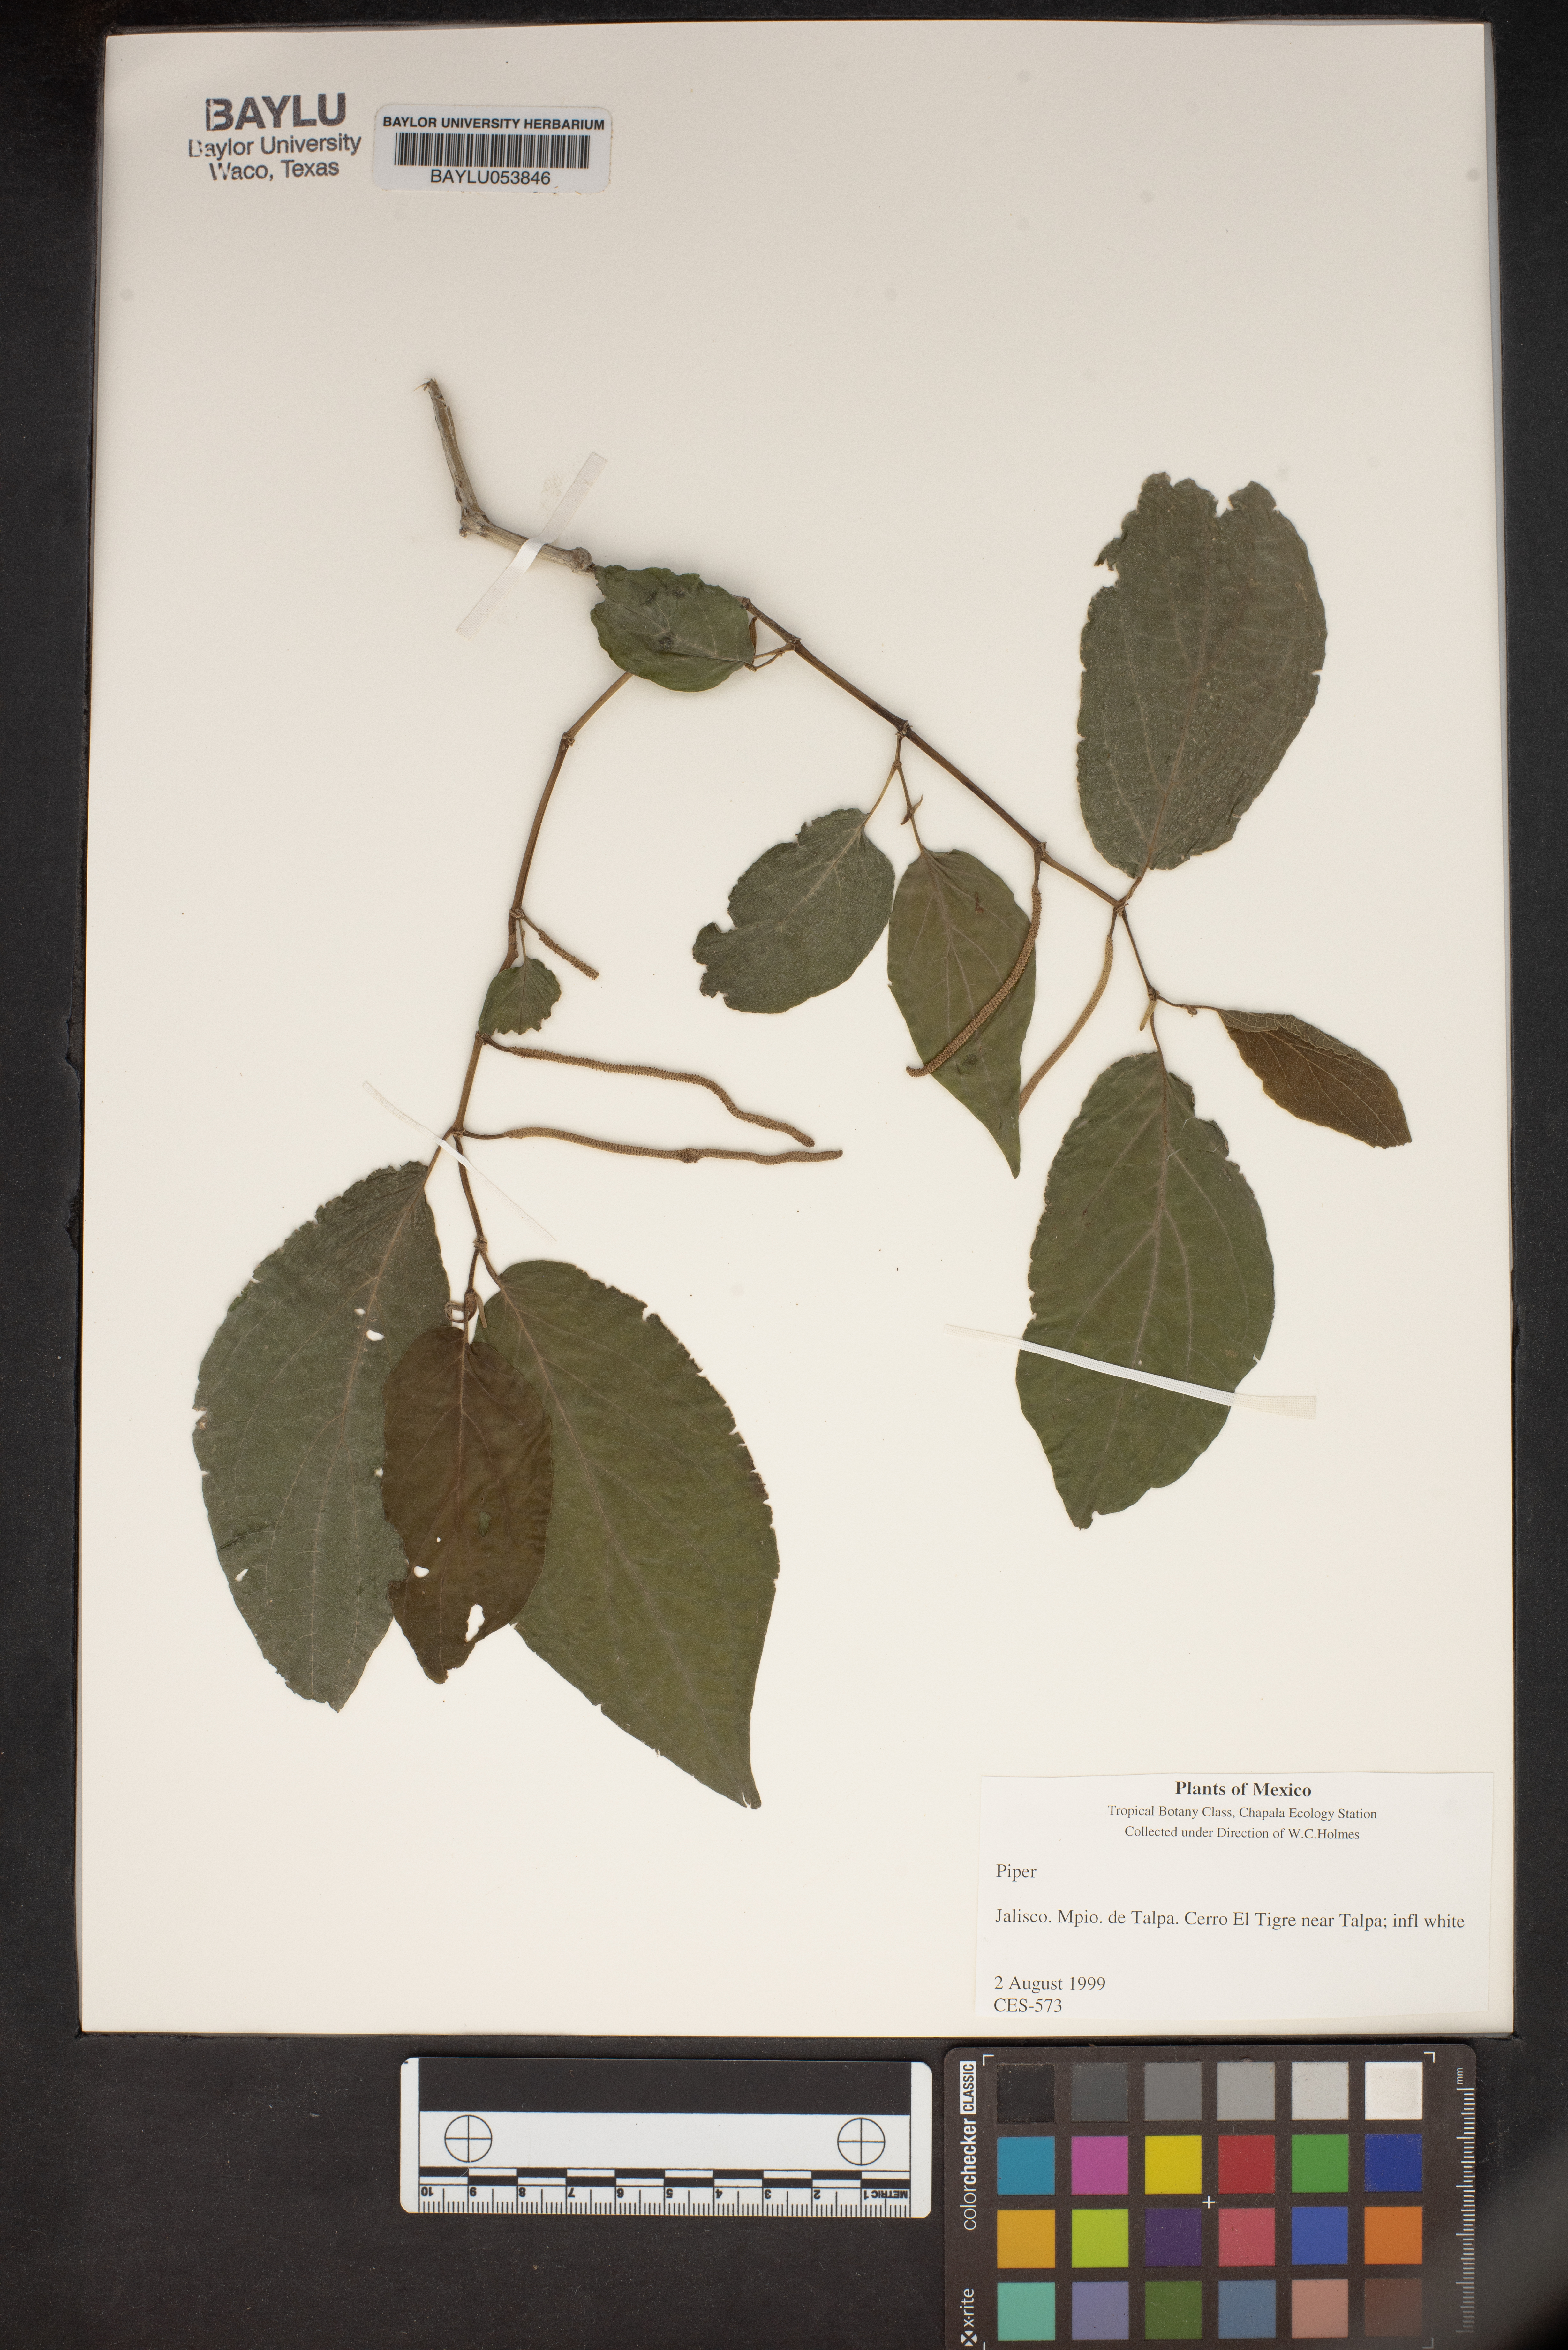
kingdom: Plantae
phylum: Tracheophyta
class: Magnoliopsida
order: Piperales
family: Piperaceae
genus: Piper
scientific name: Piper
